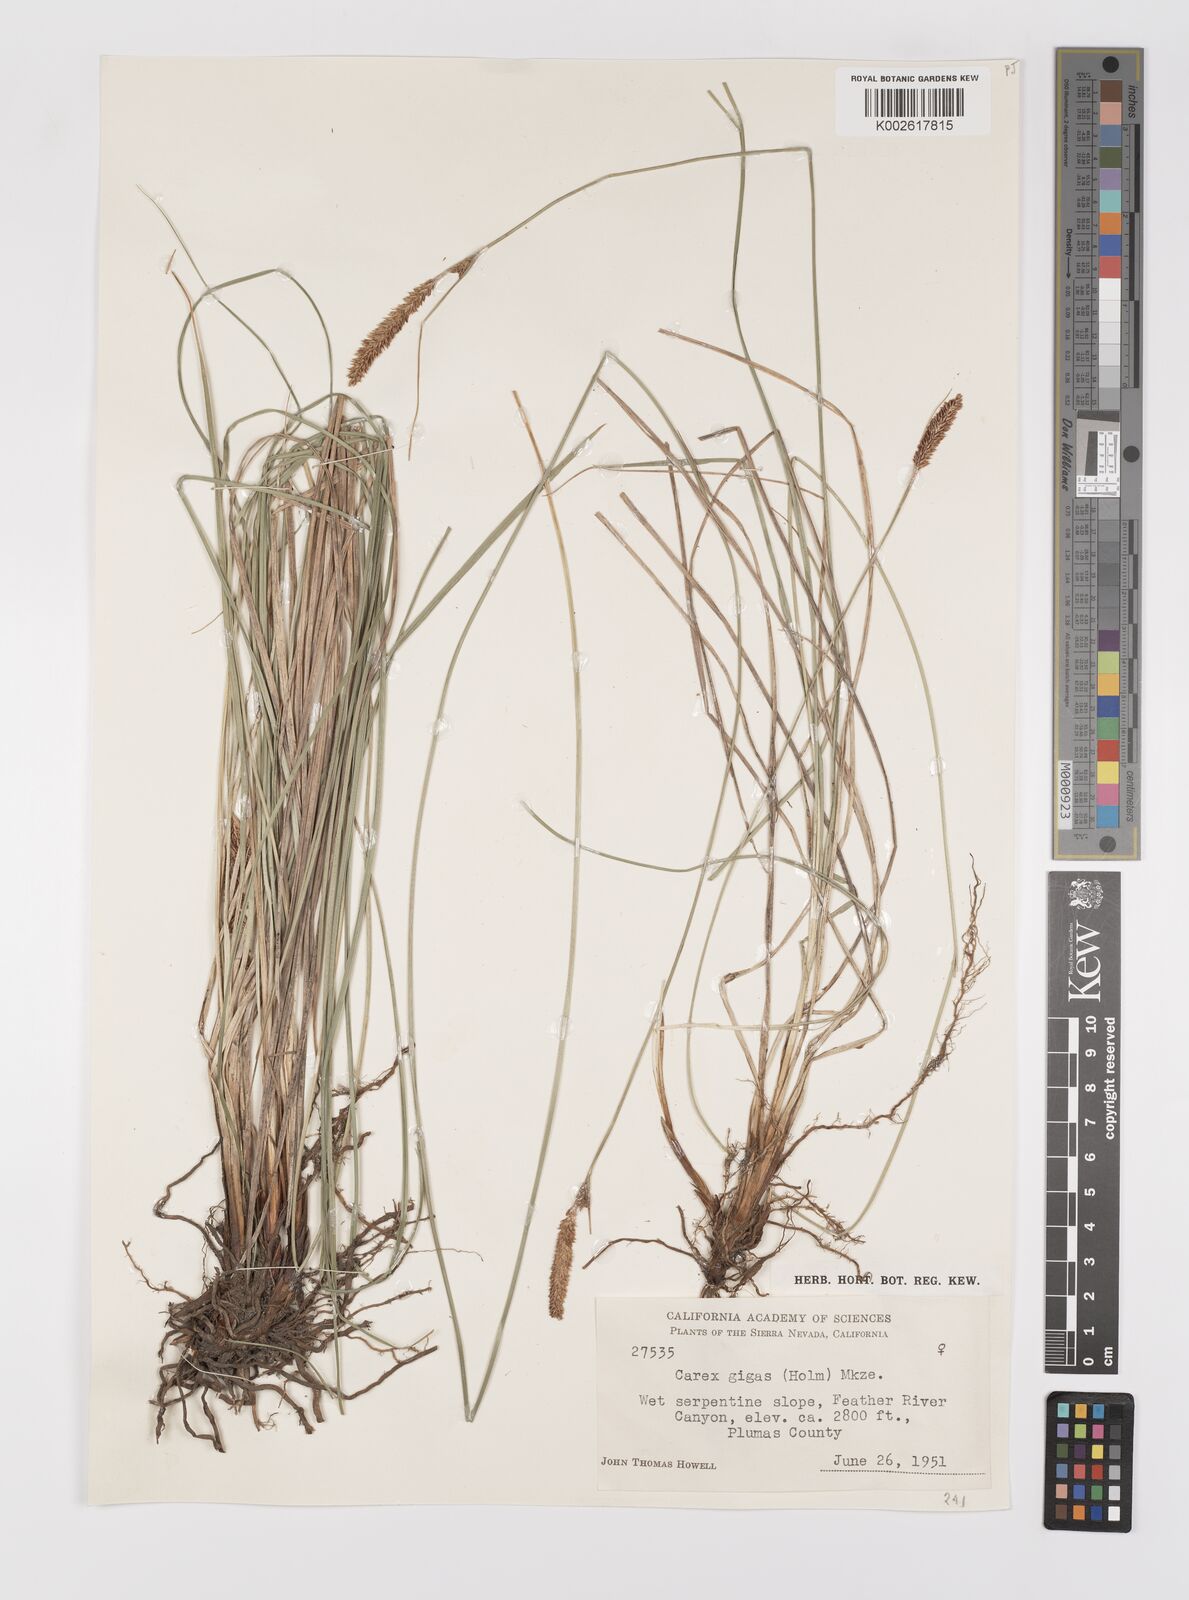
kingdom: Plantae
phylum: Tracheophyta
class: Liliopsida
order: Poales
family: Cyperaceae
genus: Carex
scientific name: Carex scabriuscula
